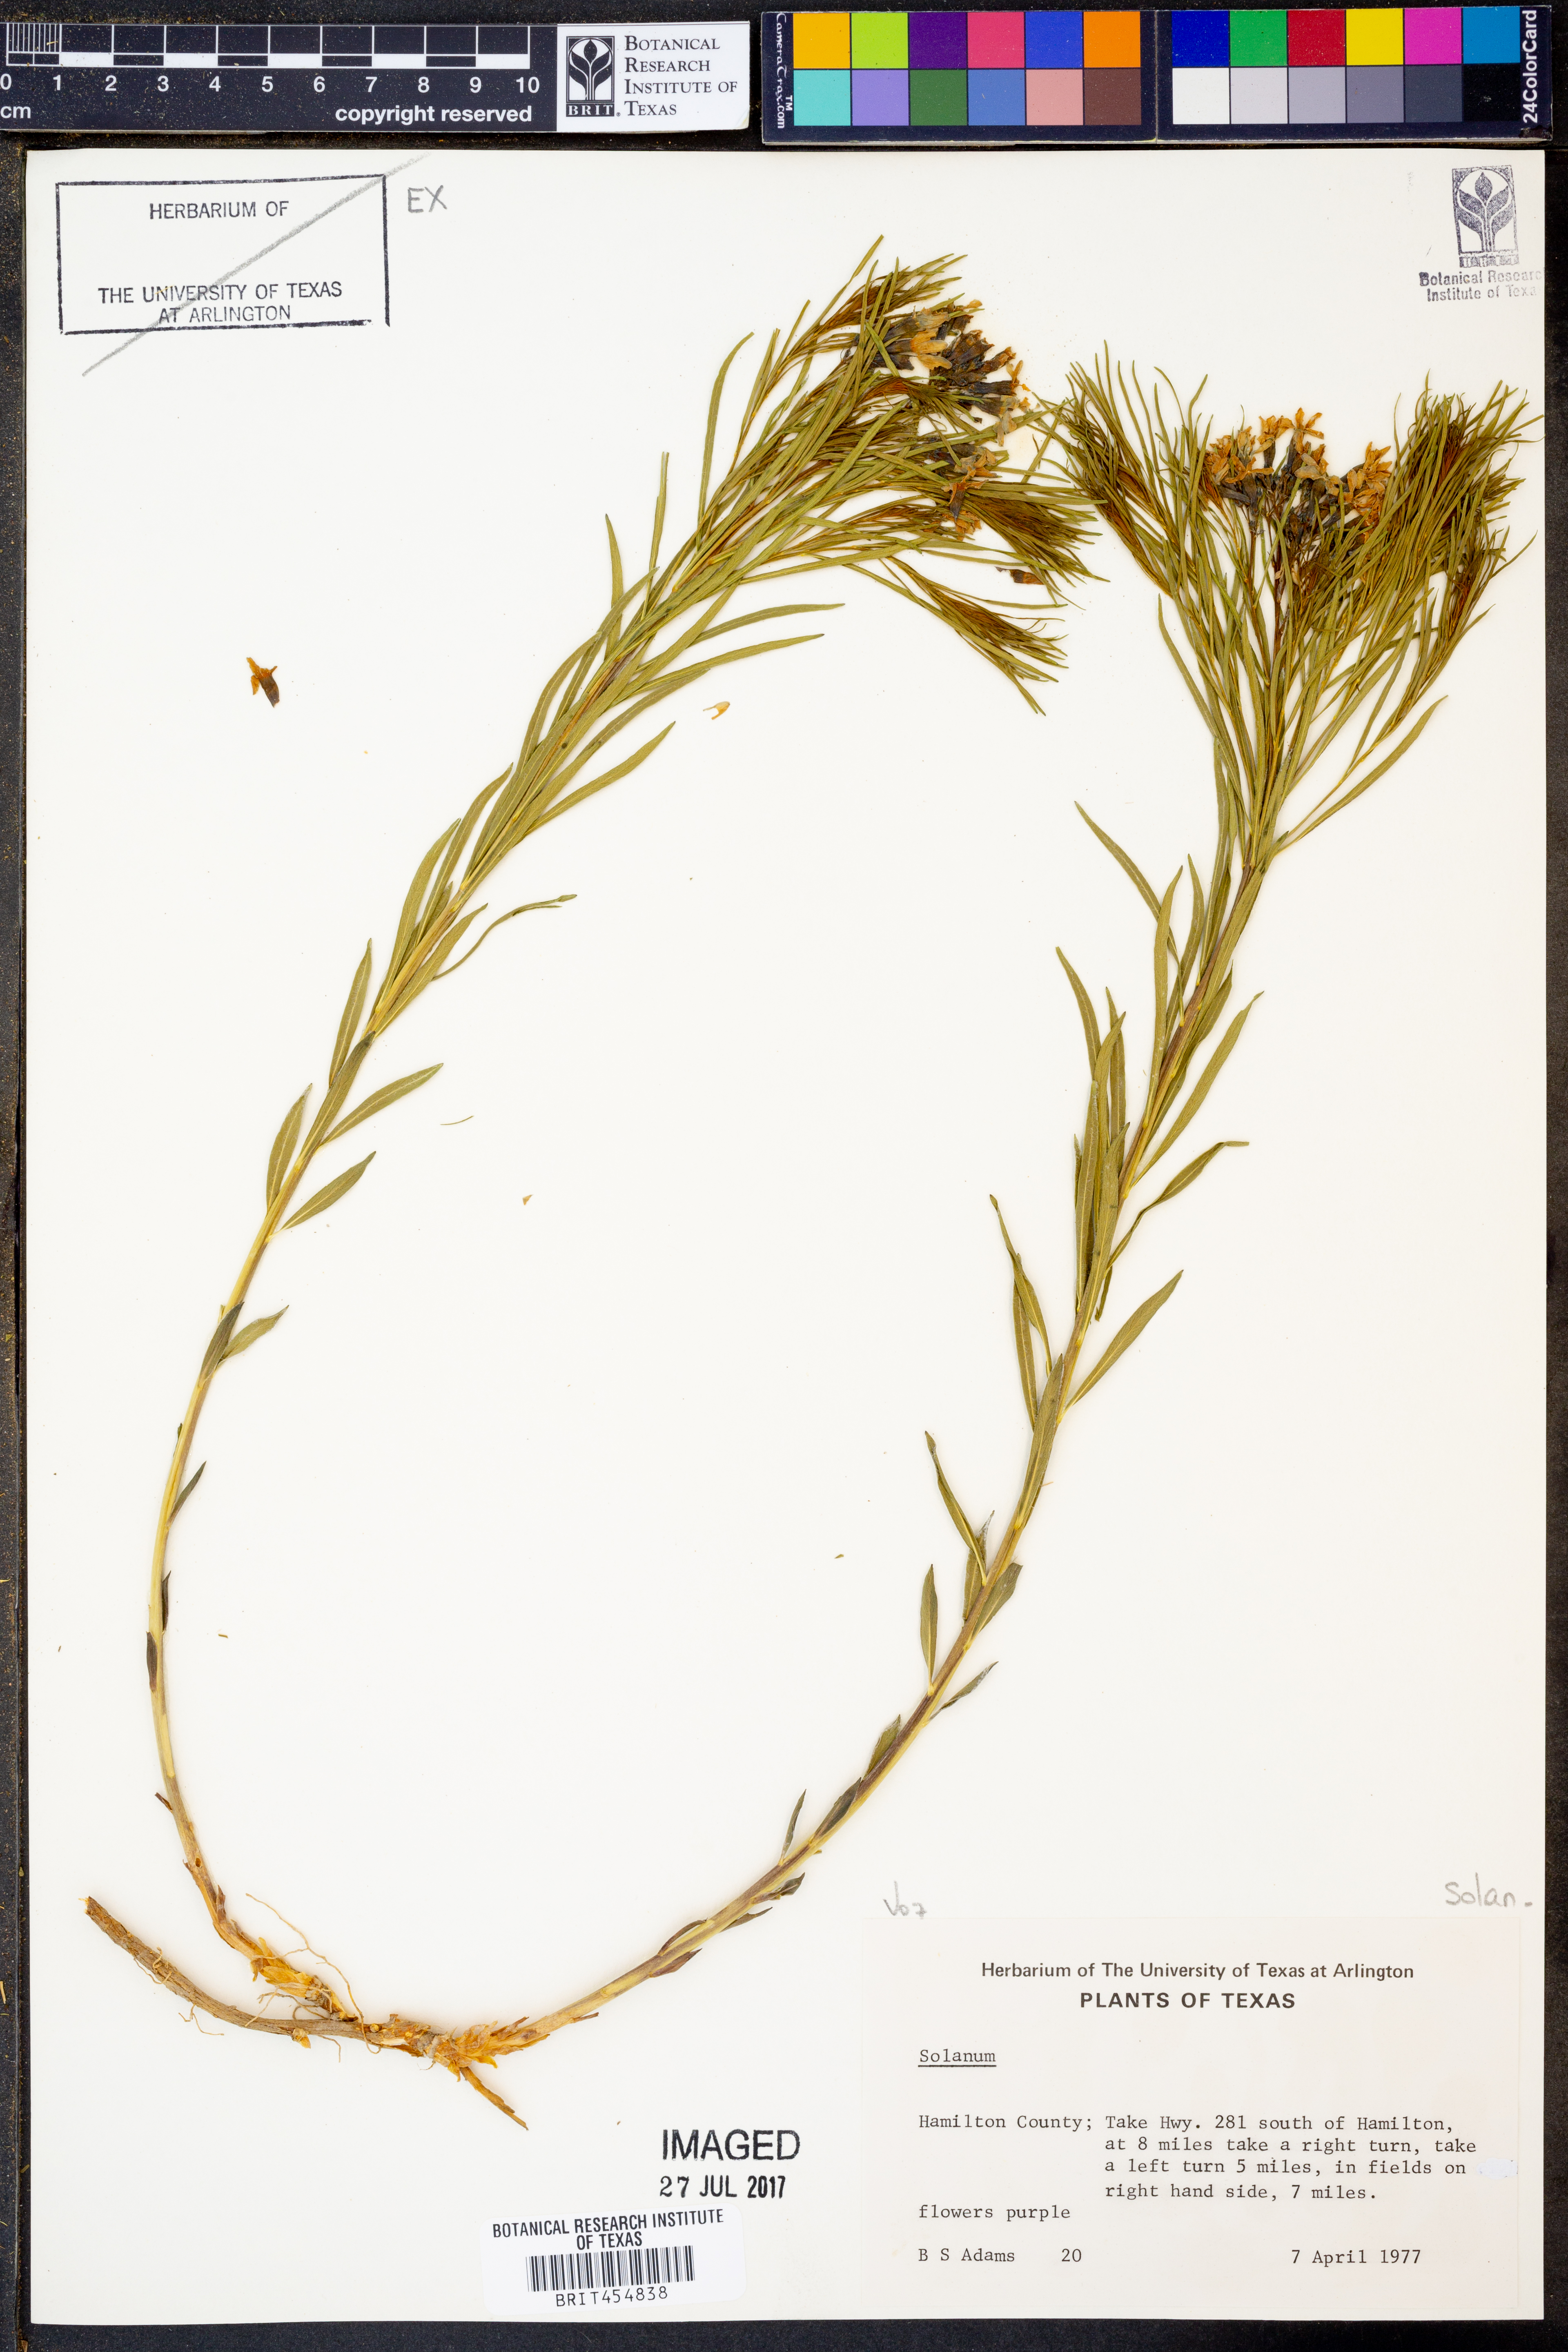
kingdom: Plantae
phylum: Tracheophyta
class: Magnoliopsida
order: Solanales
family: Solanaceae
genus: Solanum
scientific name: Solanum
